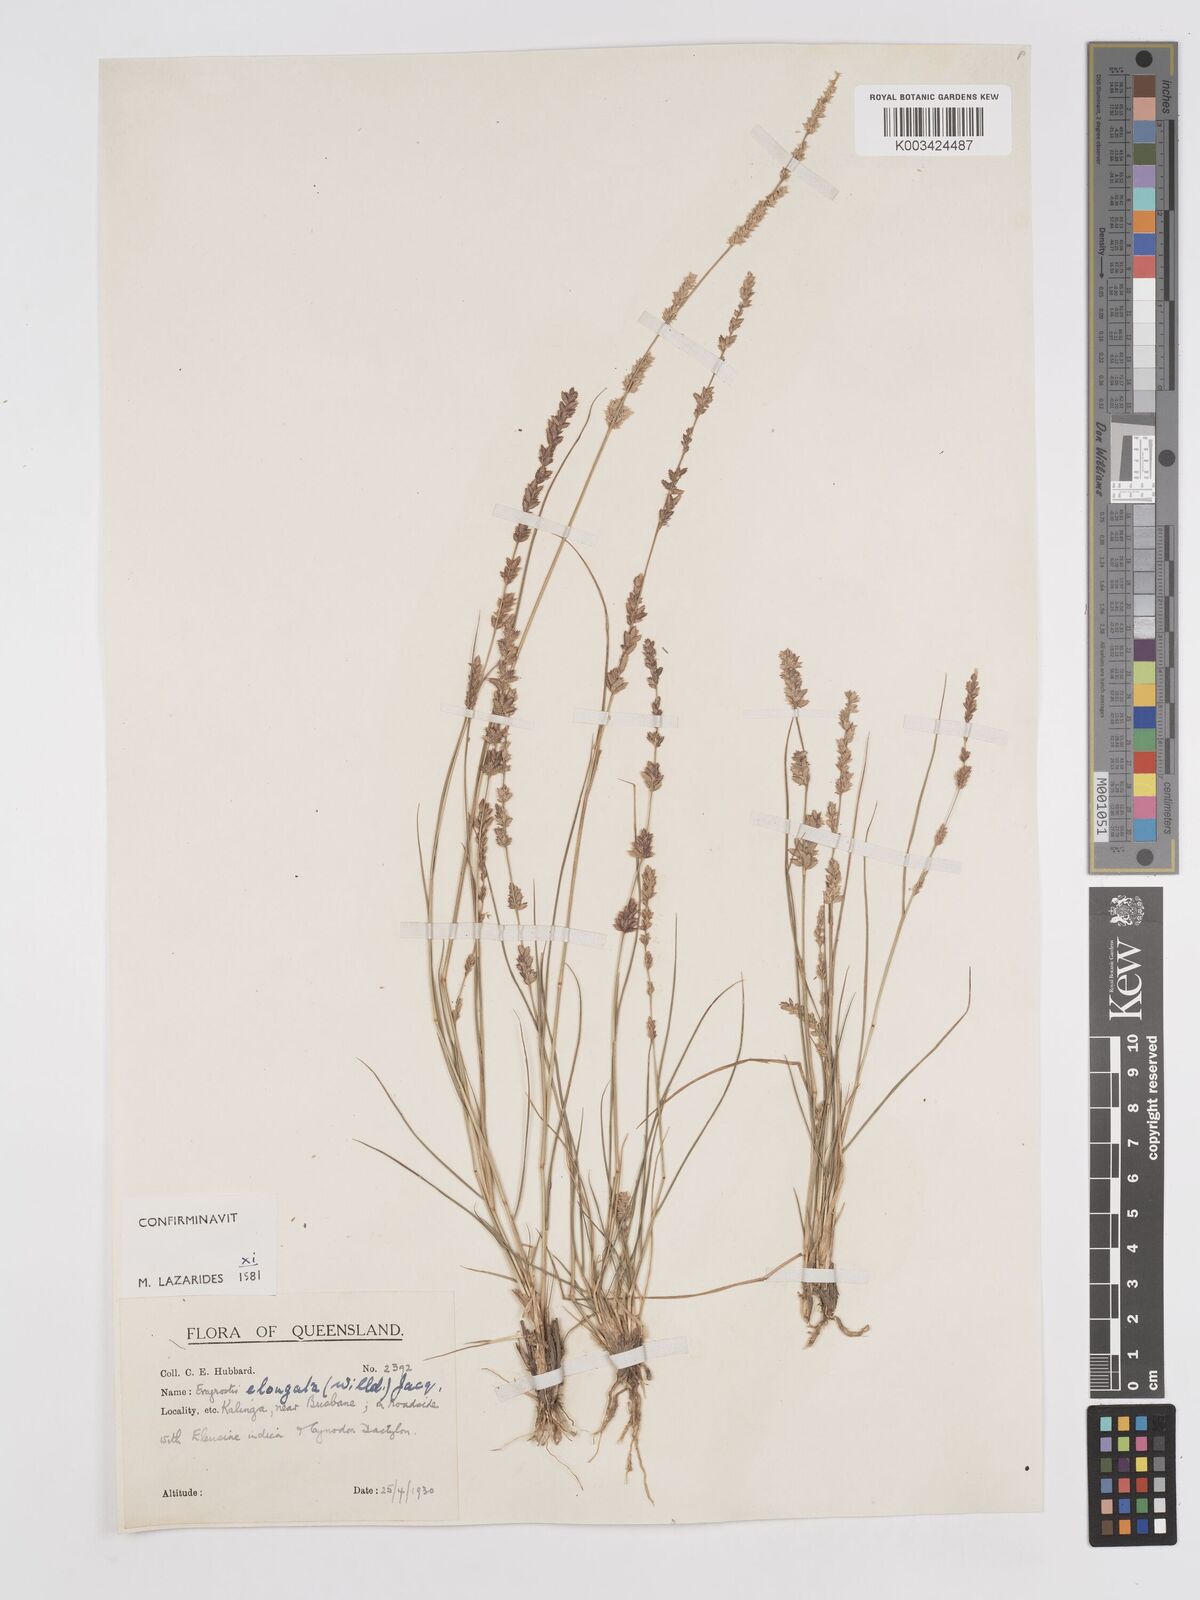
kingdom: Plantae
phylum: Tracheophyta
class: Liliopsida
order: Poales
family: Poaceae
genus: Eragrostis
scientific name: Eragrostis elongata
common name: Long lovegrass
